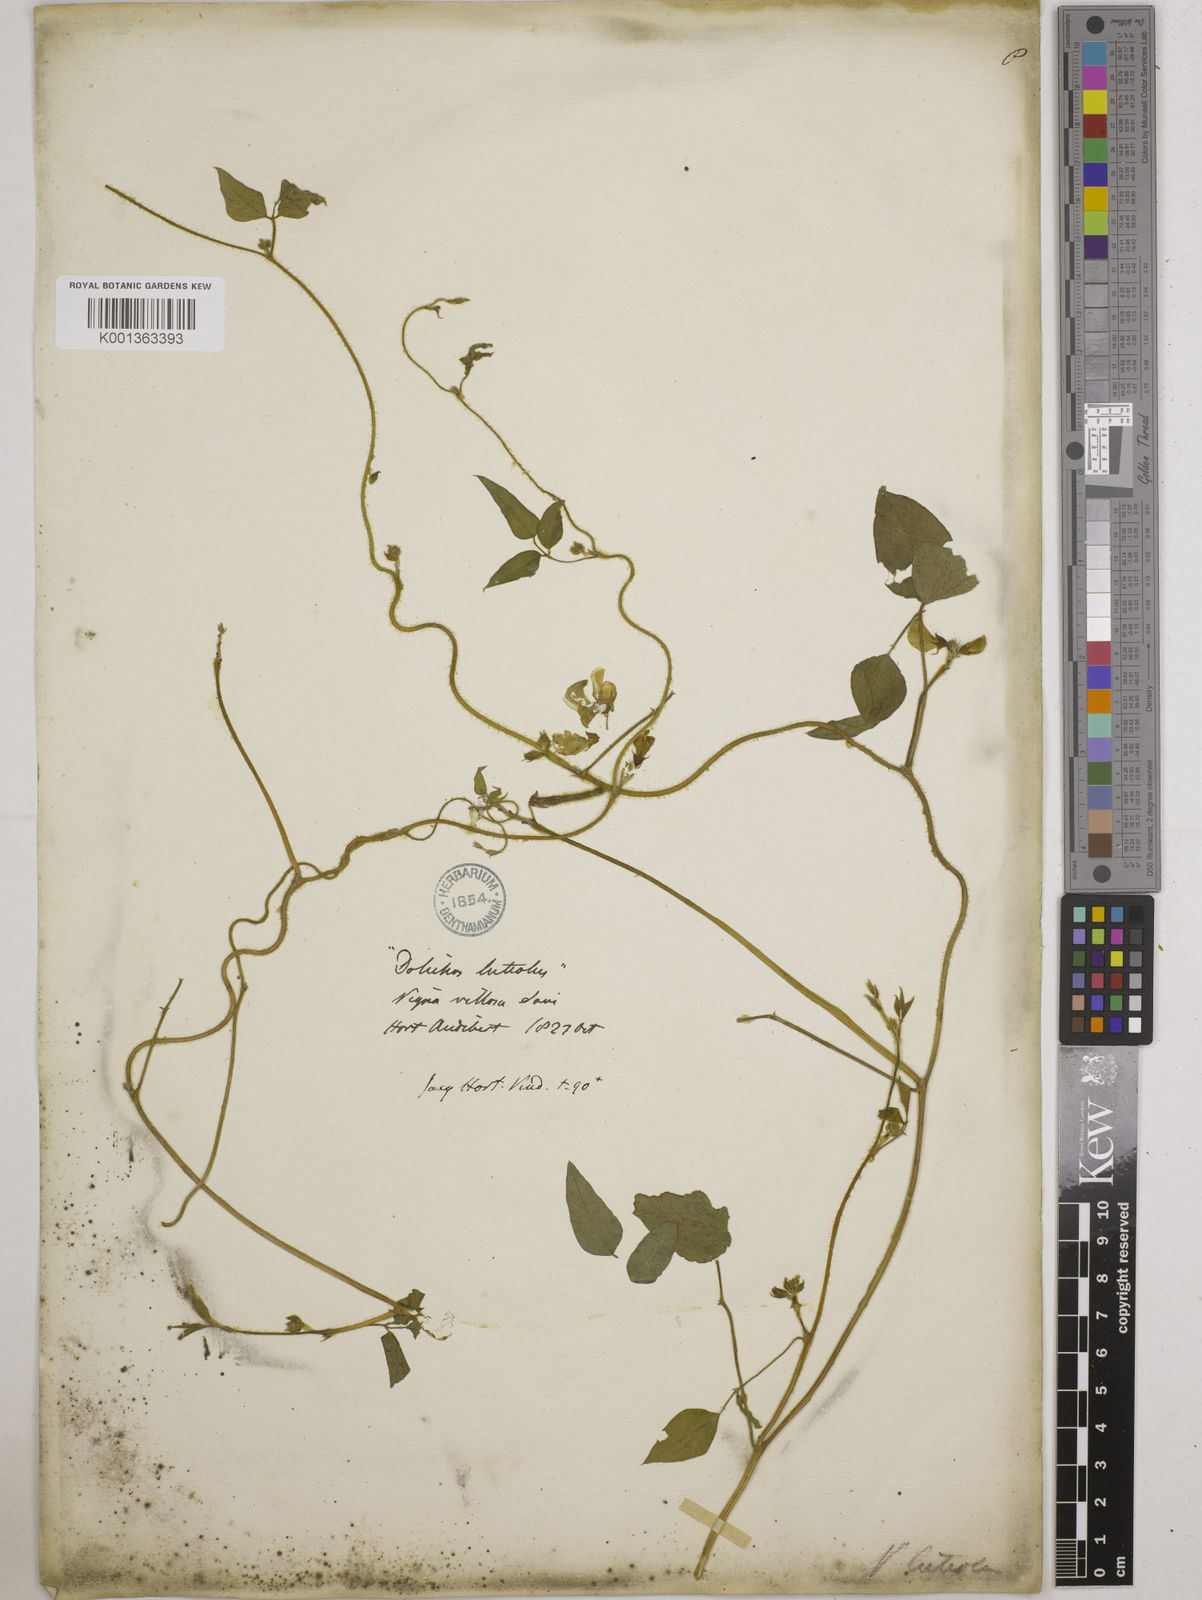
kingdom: Plantae
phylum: Tracheophyta
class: Magnoliopsida
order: Fabales
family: Fabaceae
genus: Vigna
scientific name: Vigna luteola
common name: Hairypod cowpea
